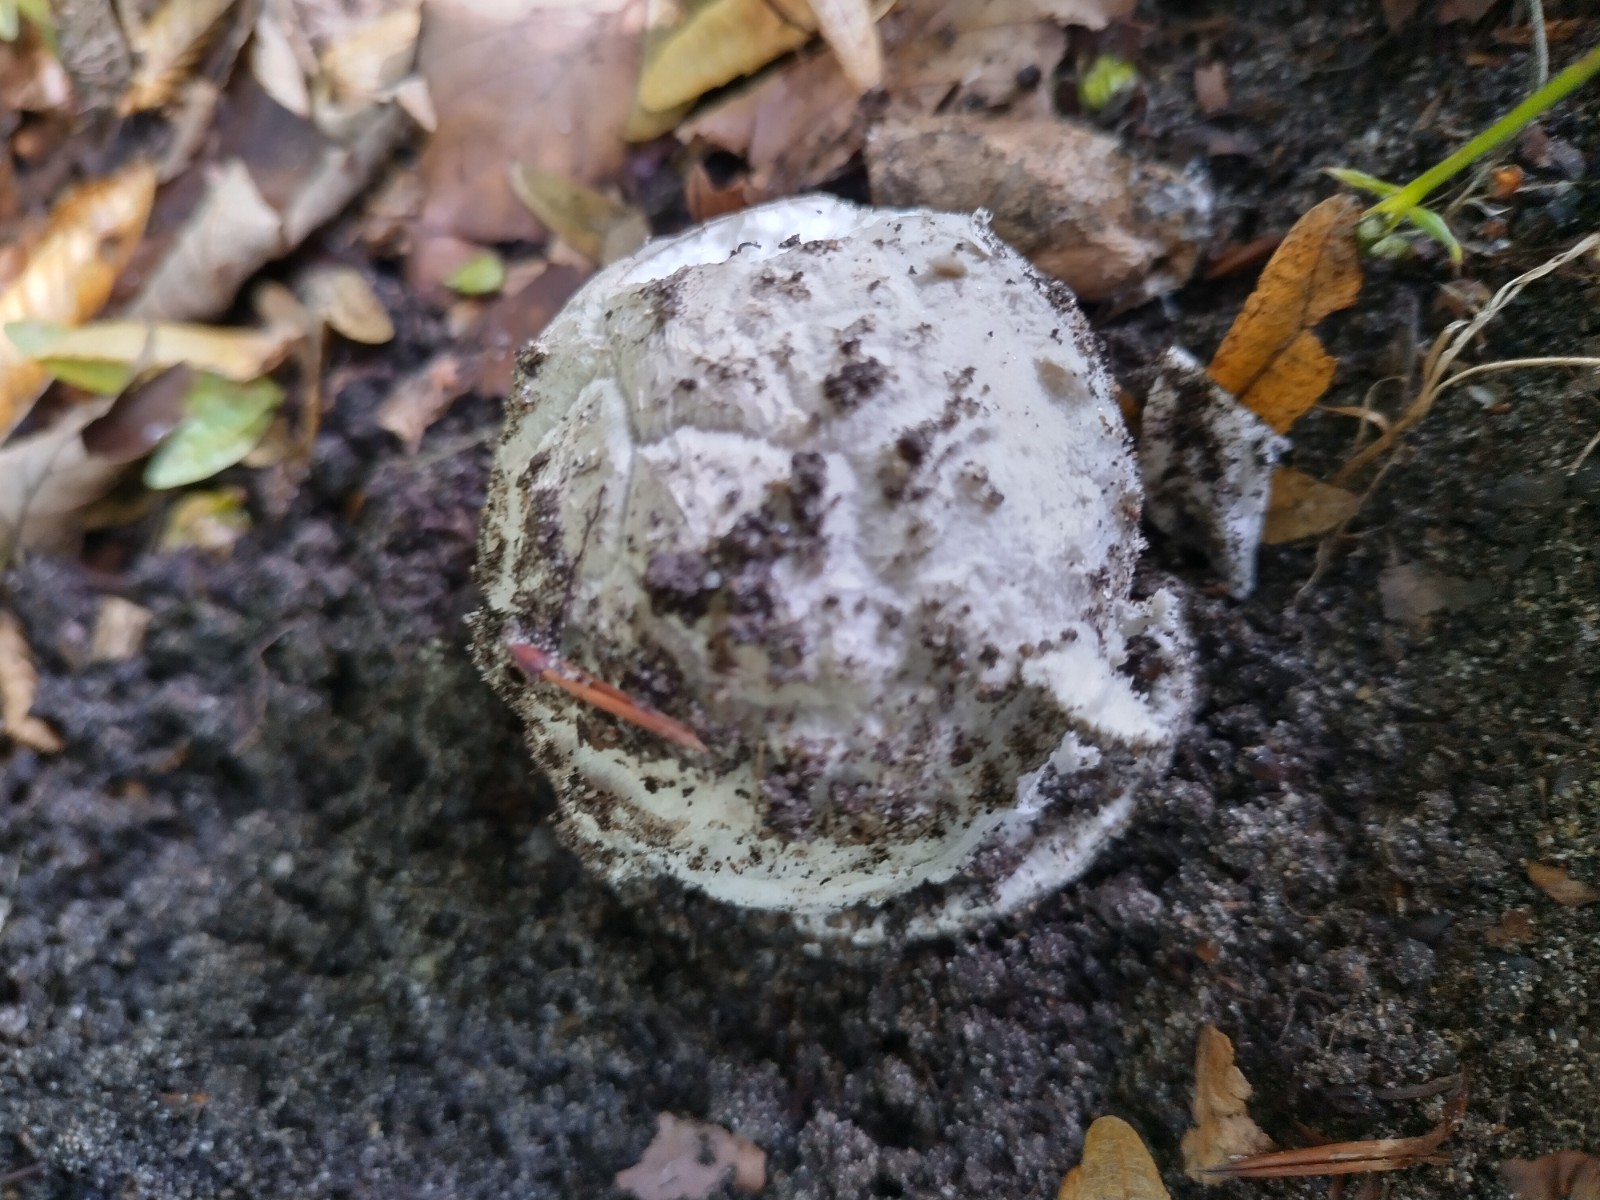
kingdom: Fungi
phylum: Basidiomycota
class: Agaricomycetes
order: Agaricales
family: Amanitaceae
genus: Amanita
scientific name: Amanita
